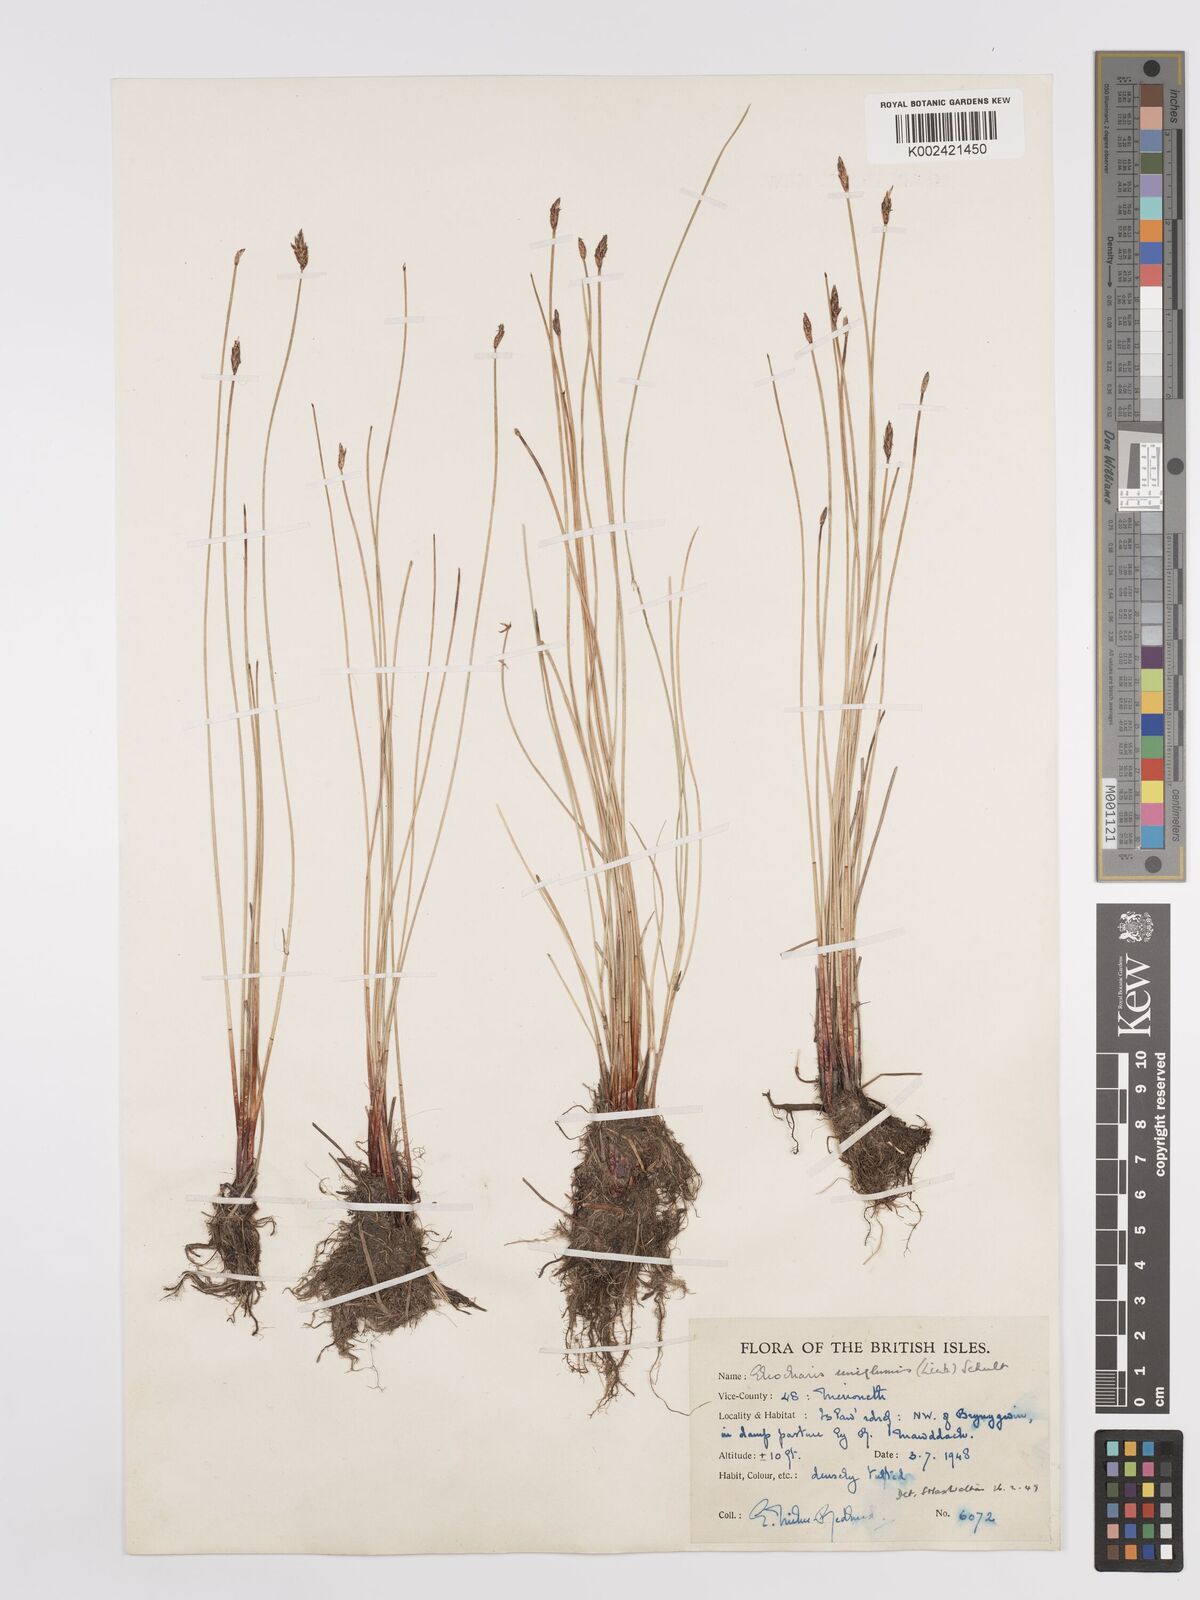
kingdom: Plantae
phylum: Tracheophyta
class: Liliopsida
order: Poales
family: Cyperaceae
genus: Eleocharis
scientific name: Eleocharis uniglumis
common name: Slender spike-rush
